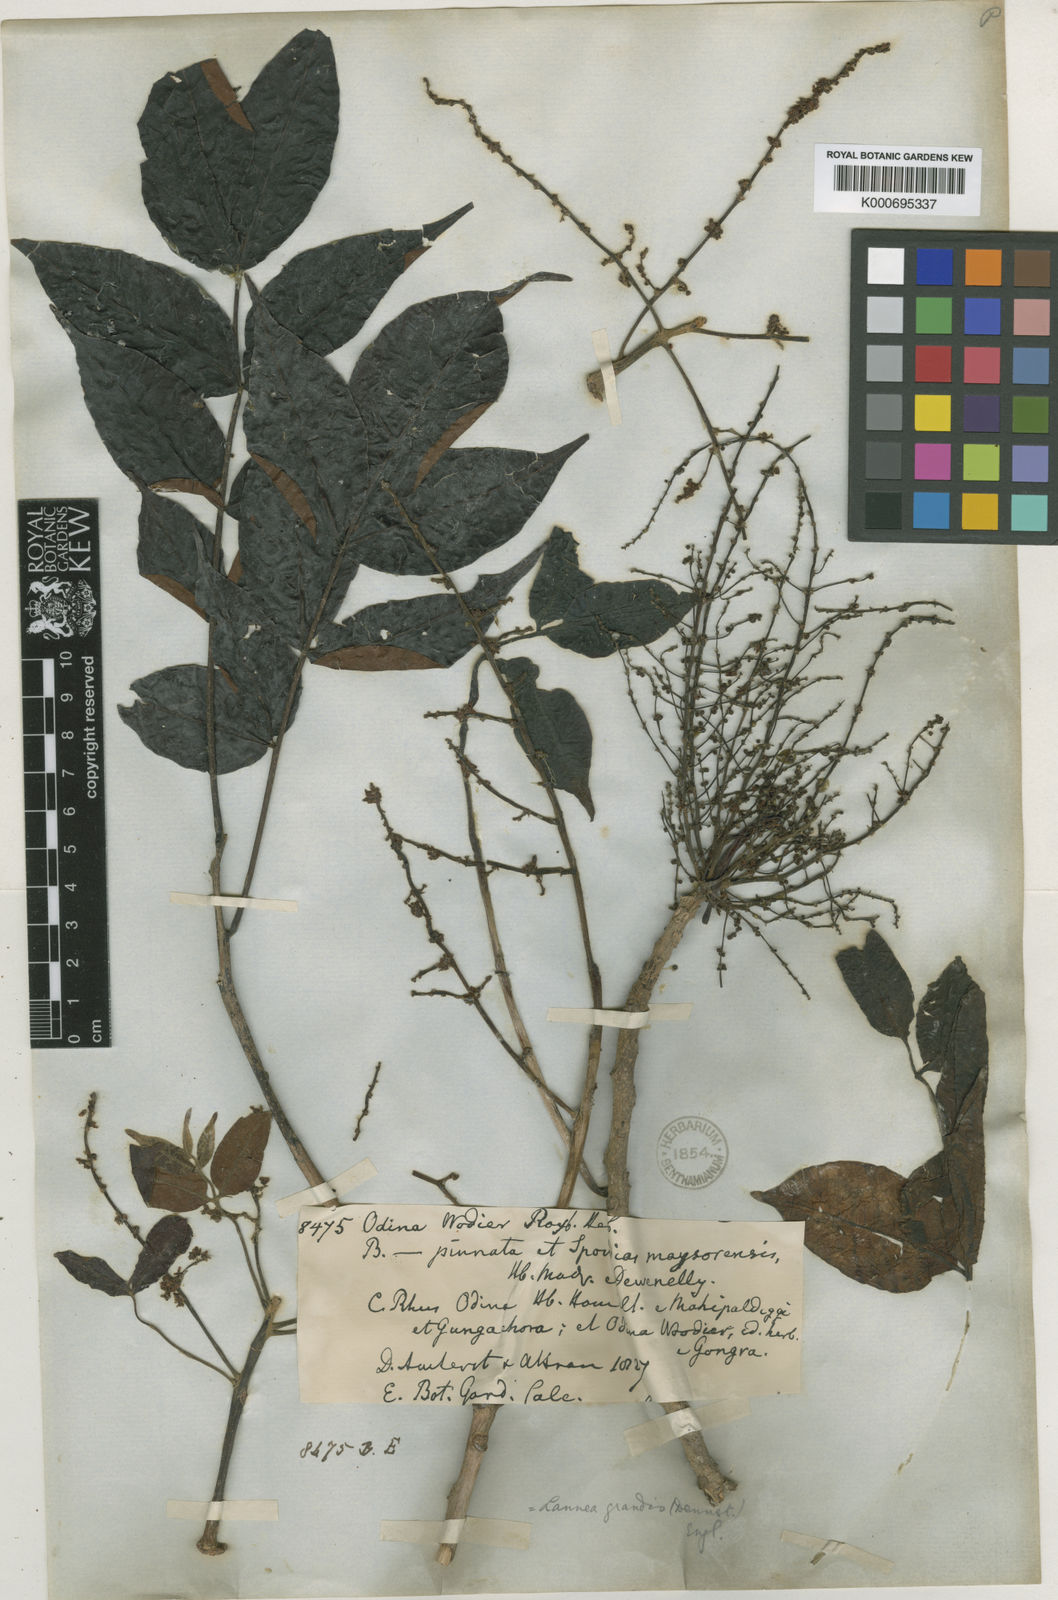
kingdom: Plantae
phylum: Tracheophyta
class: Magnoliopsida
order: Sapindales
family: Anacardiaceae
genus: Lannea
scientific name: Lannea coromandelica
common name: Indian ash tree
